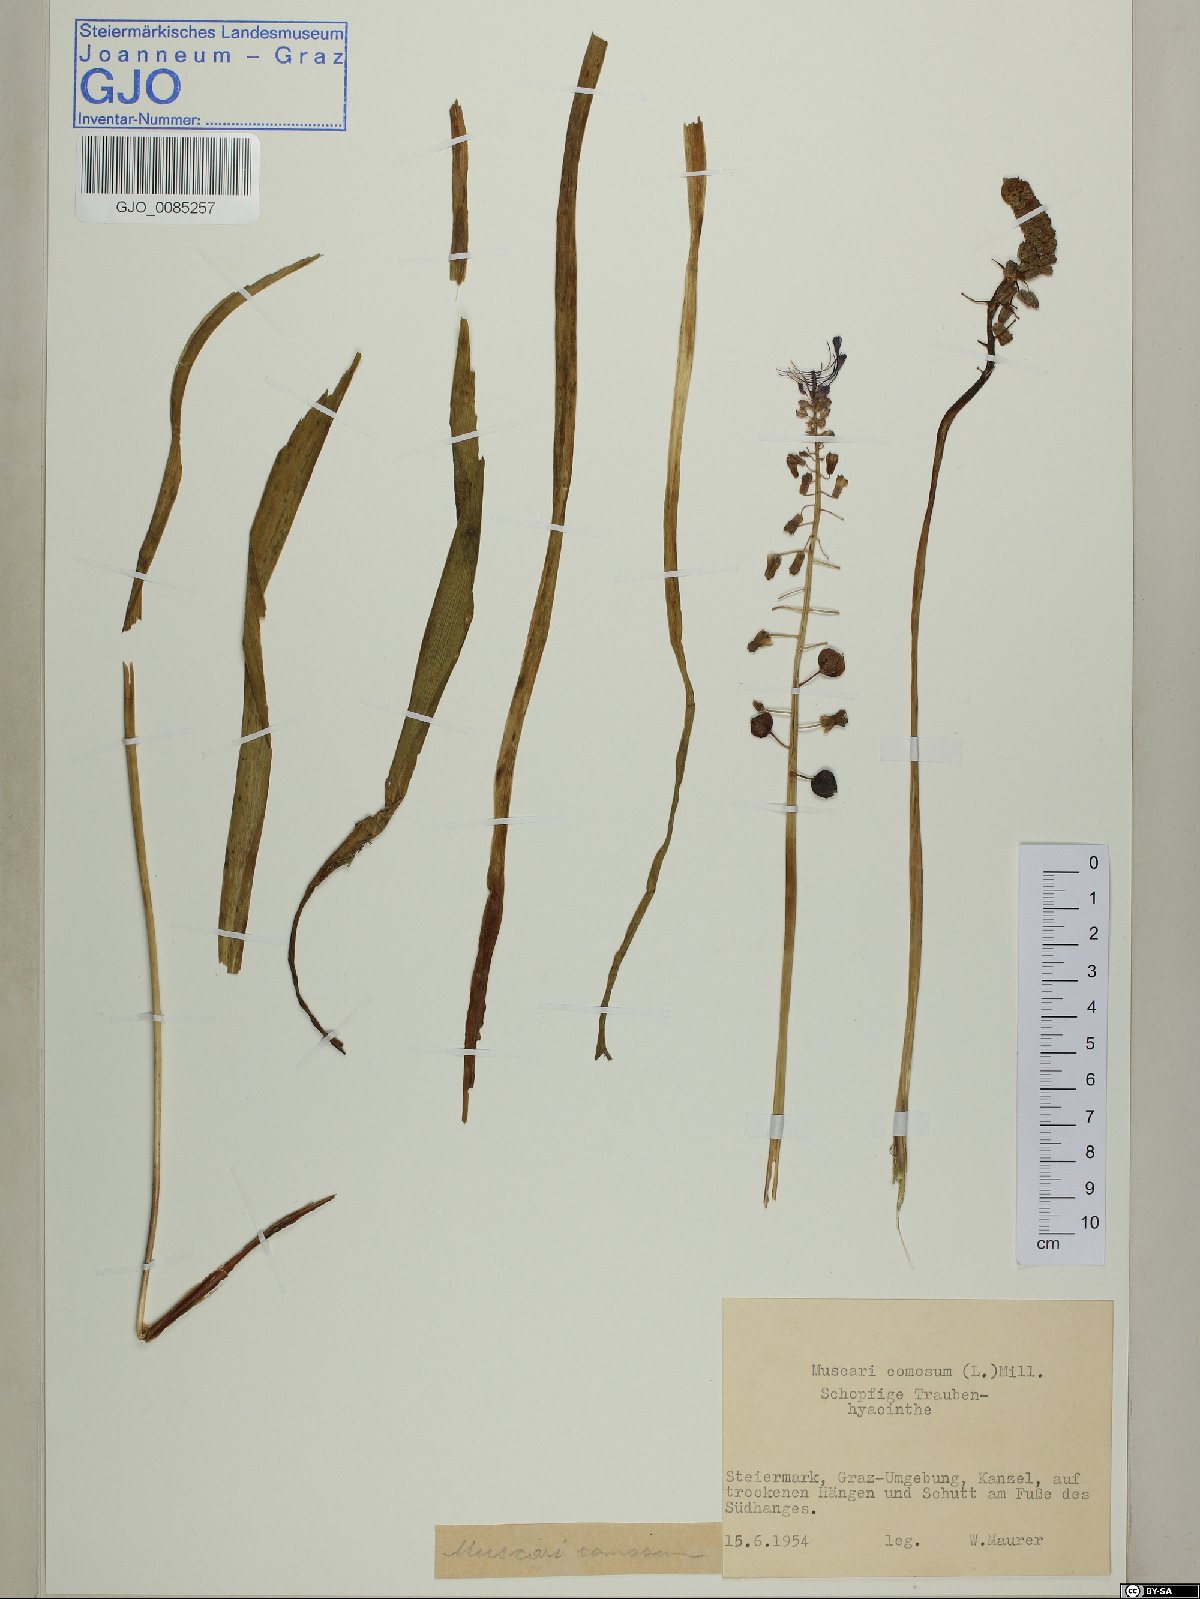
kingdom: Plantae
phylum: Tracheophyta
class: Liliopsida
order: Asparagales
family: Asparagaceae
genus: Muscari
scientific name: Muscari comosum
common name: Tassel hyacinth
